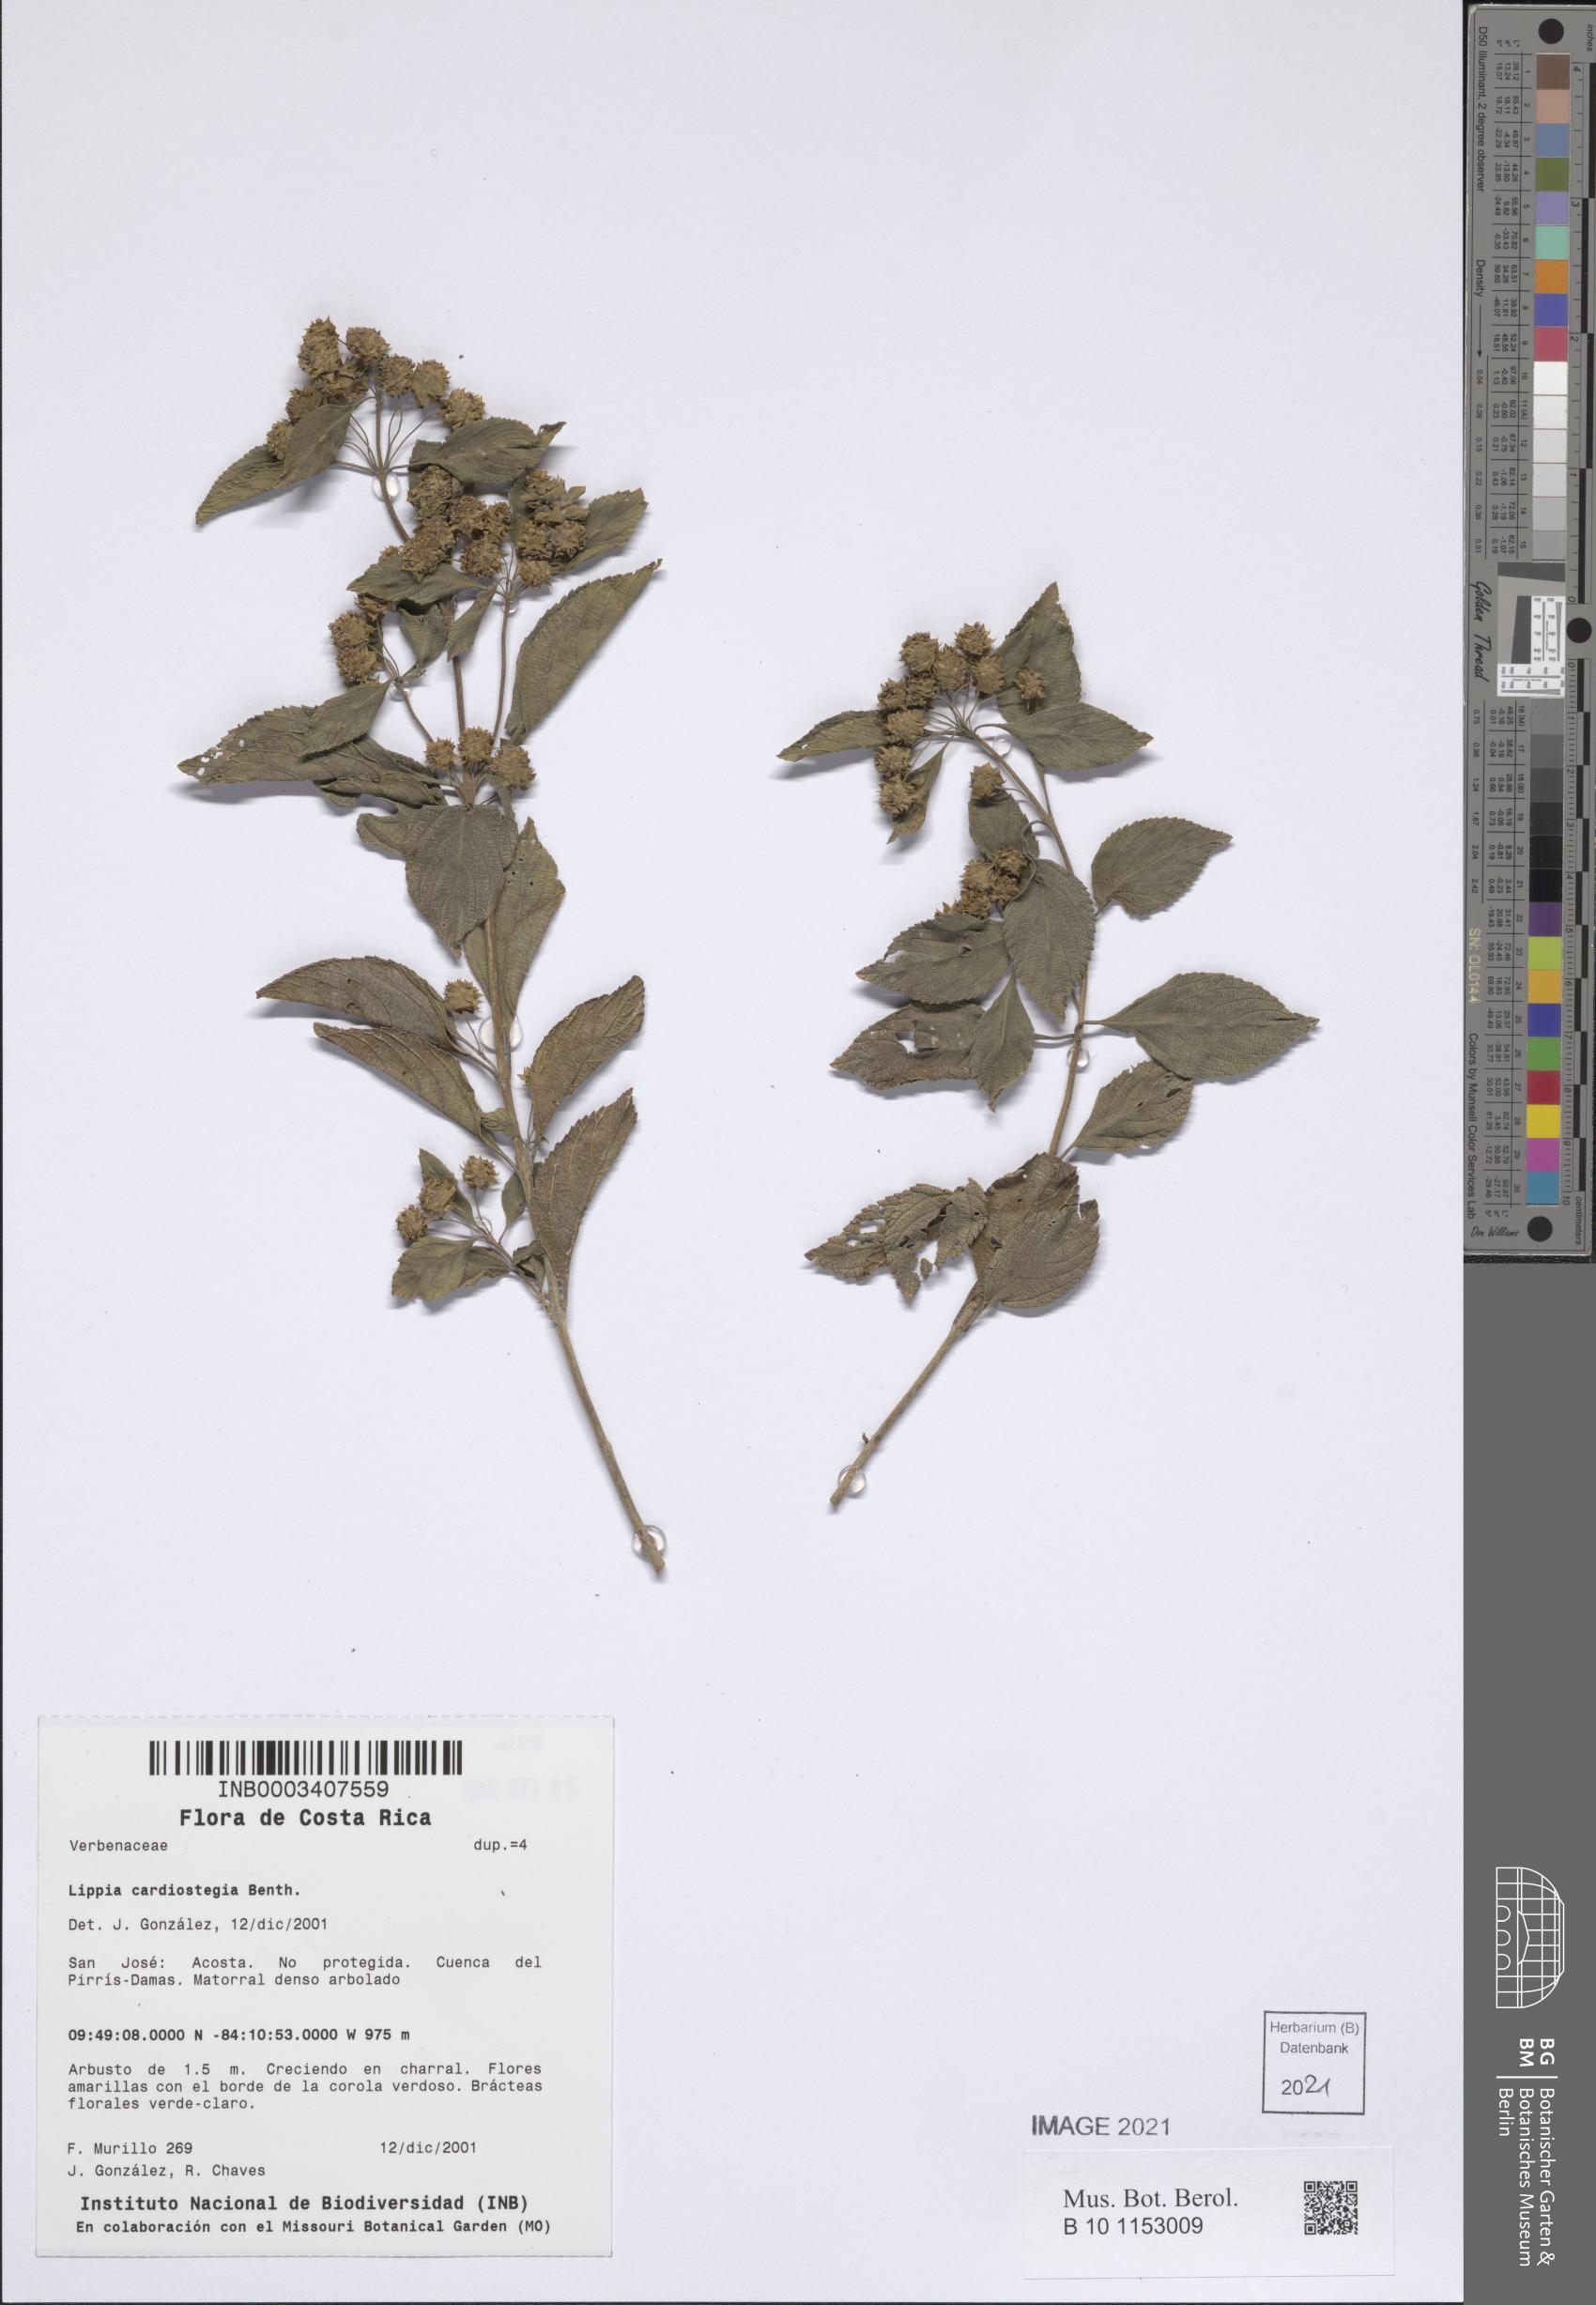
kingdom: Plantae
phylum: Tracheophyta
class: Magnoliopsida
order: Lamiales
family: Verbenaceae
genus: Lippia
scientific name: Lippia cardiostegia
